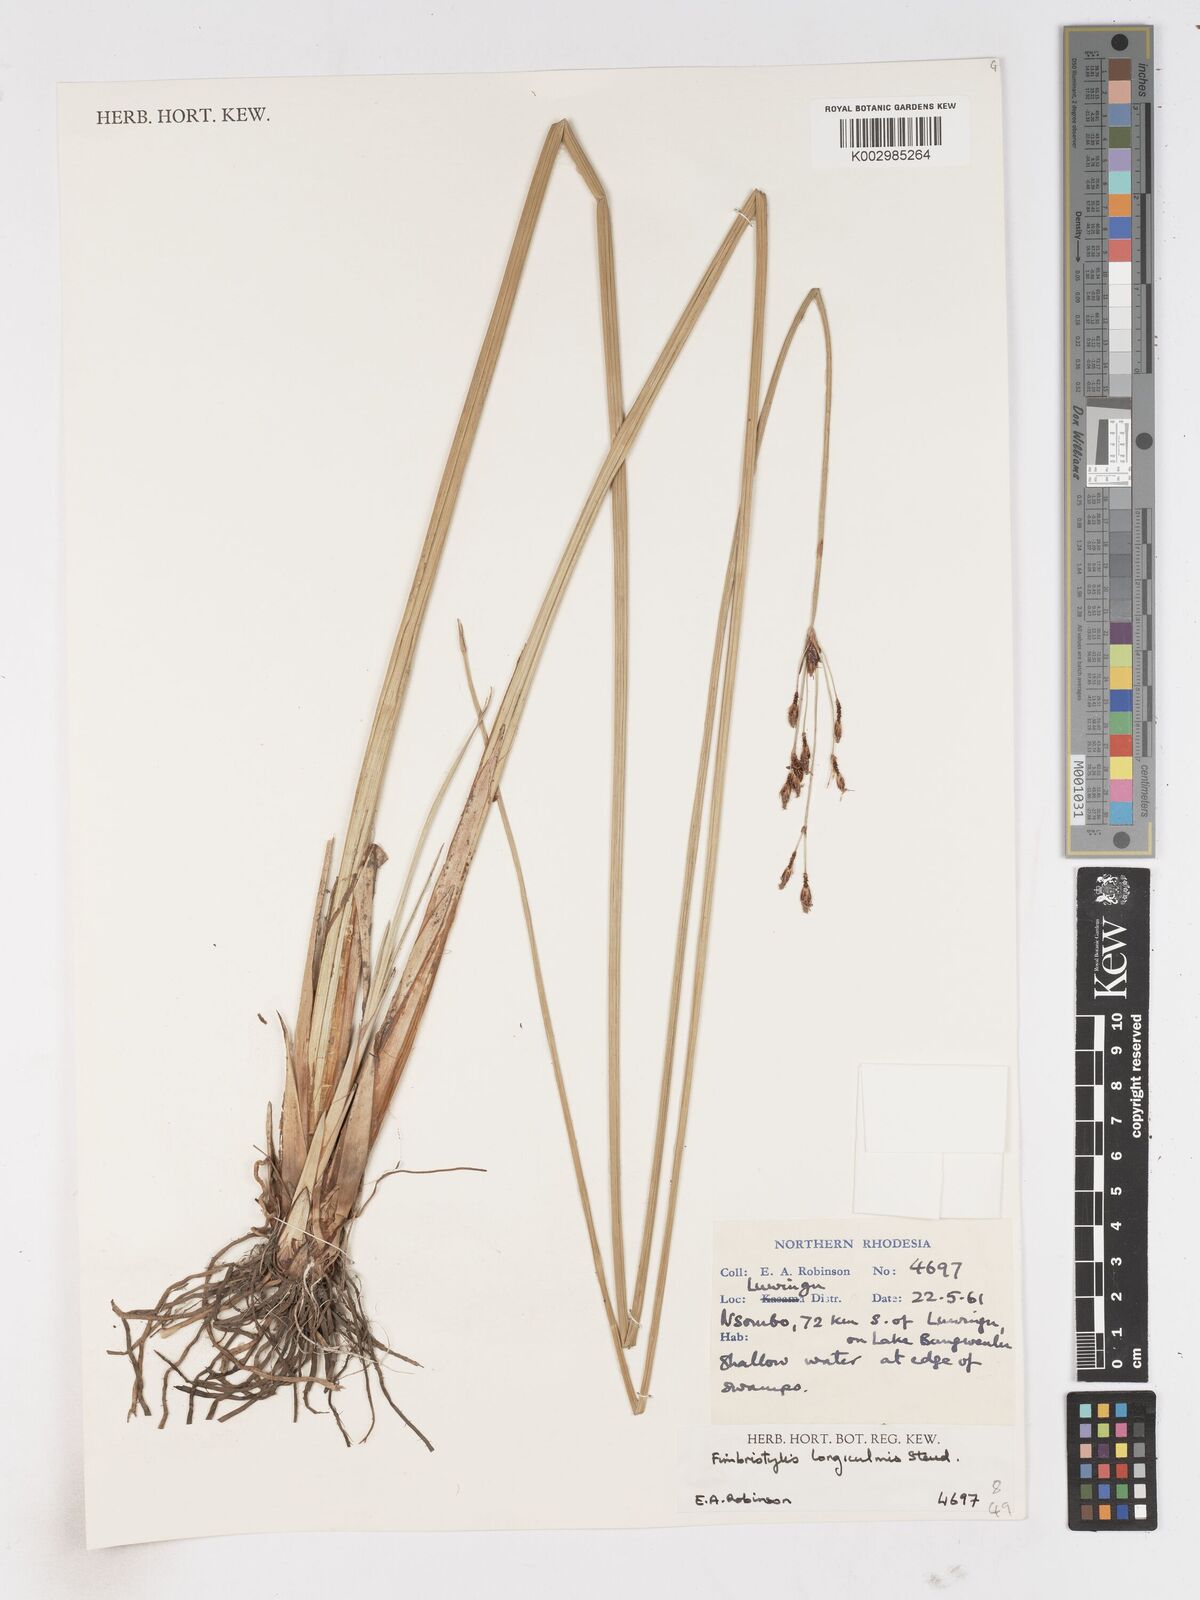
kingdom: Plantae
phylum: Tracheophyta
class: Liliopsida
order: Poales
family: Cyperaceae
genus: Fimbristylis
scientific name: Fimbristylis bivalvis
